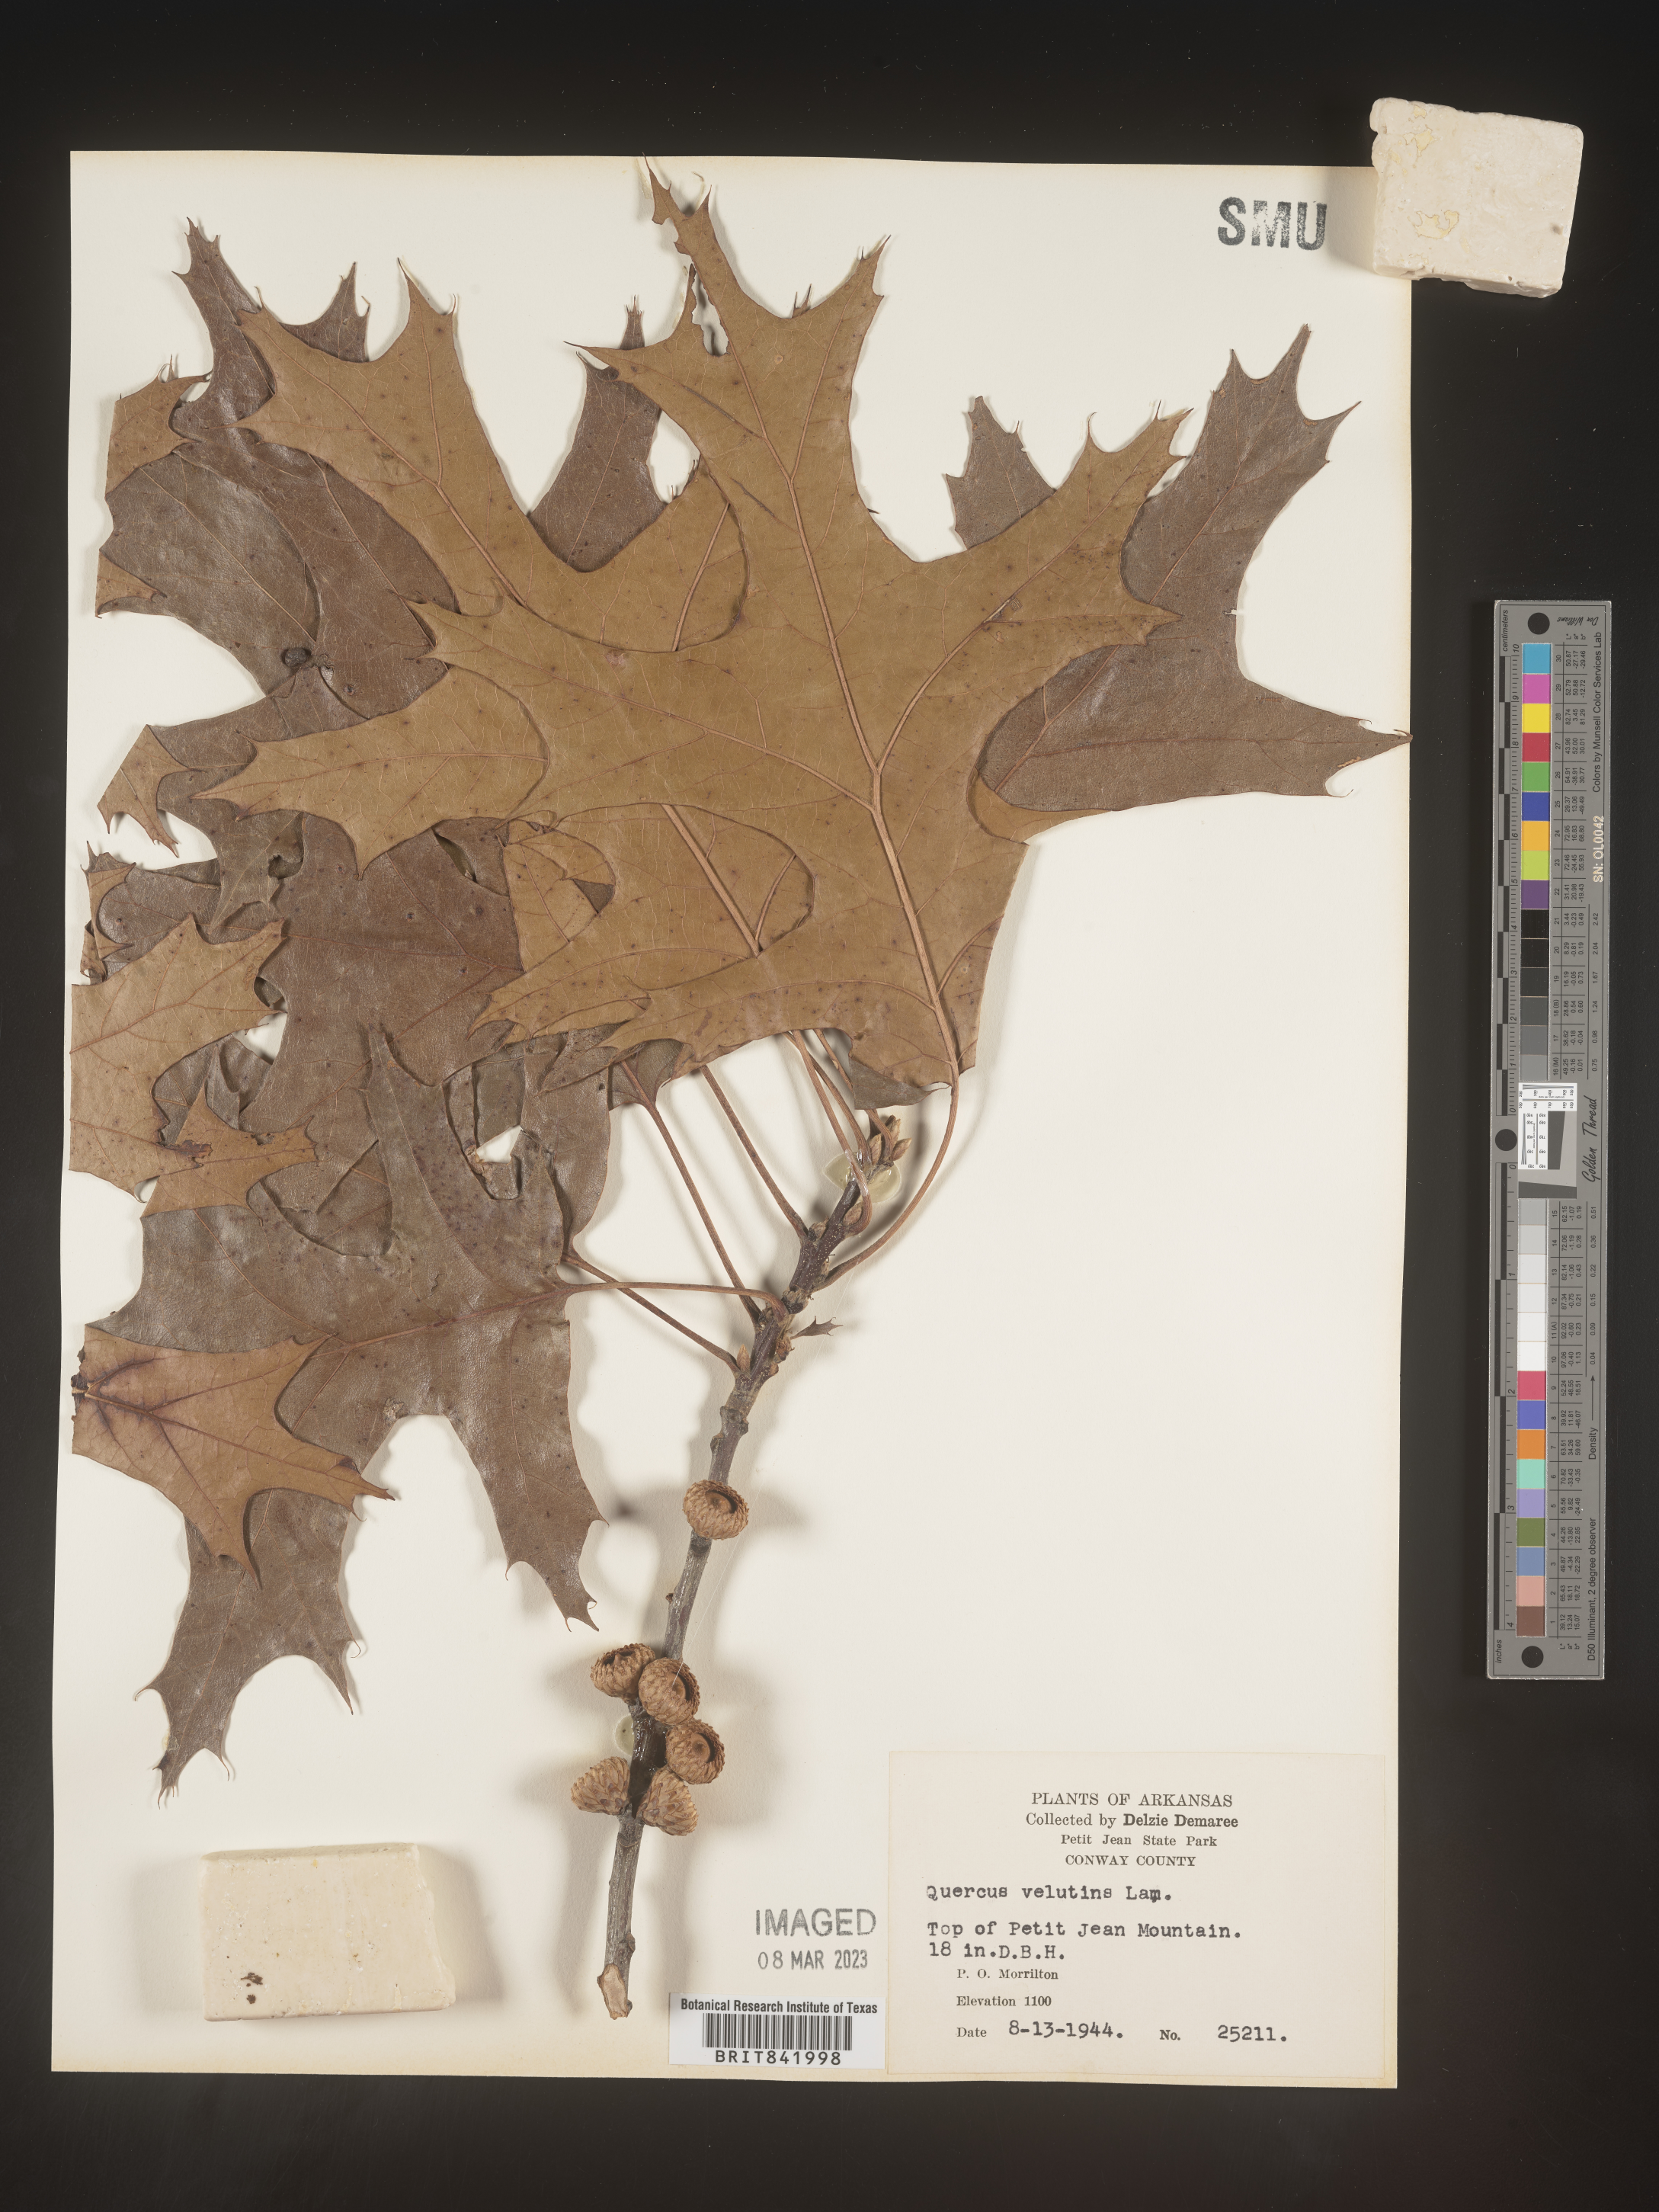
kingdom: Plantae
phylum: Tracheophyta
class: Magnoliopsida
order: Fagales
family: Fagaceae
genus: Quercus
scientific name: Quercus velutina
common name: Black oak
